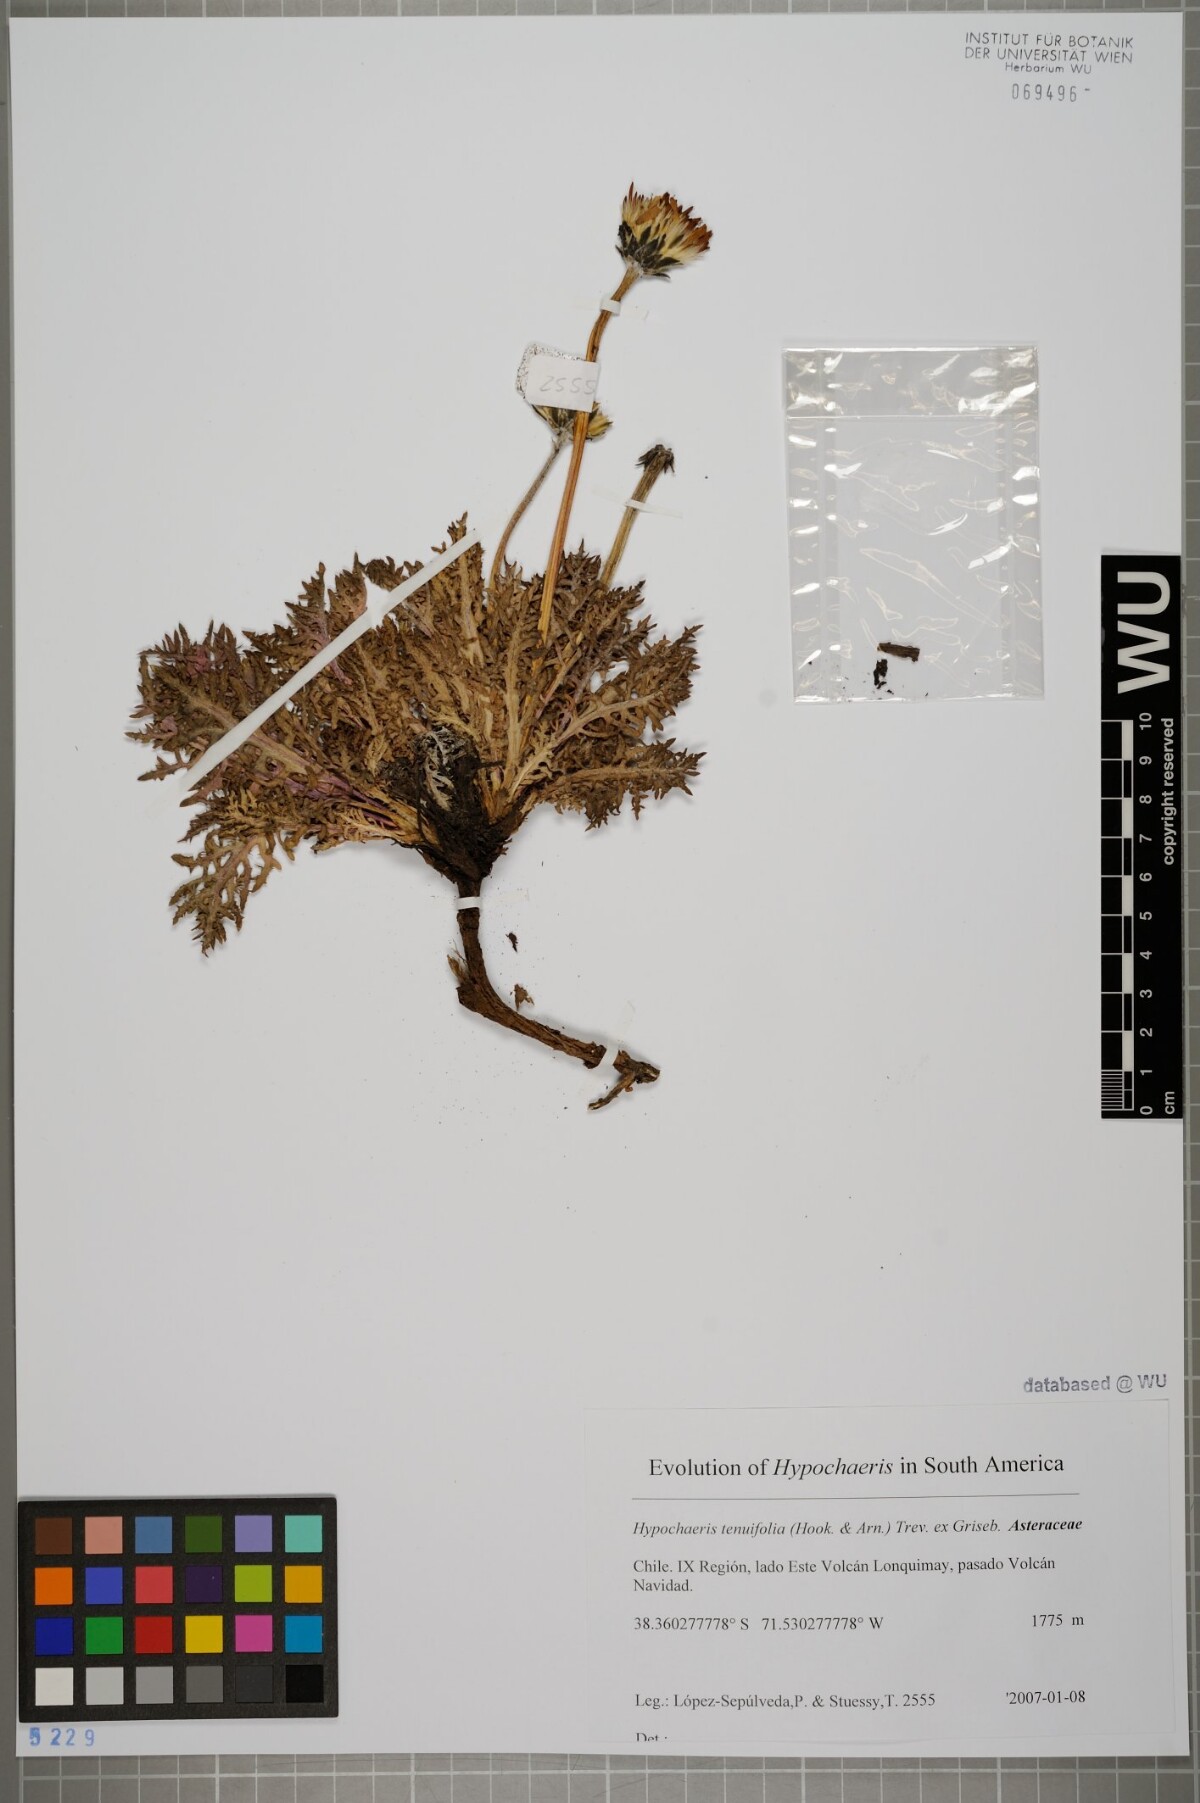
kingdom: Plantae
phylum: Tracheophyta
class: Magnoliopsida
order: Asterales
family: Asteraceae
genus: Hypochaeris
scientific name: Hypochaeris tenuifolia
